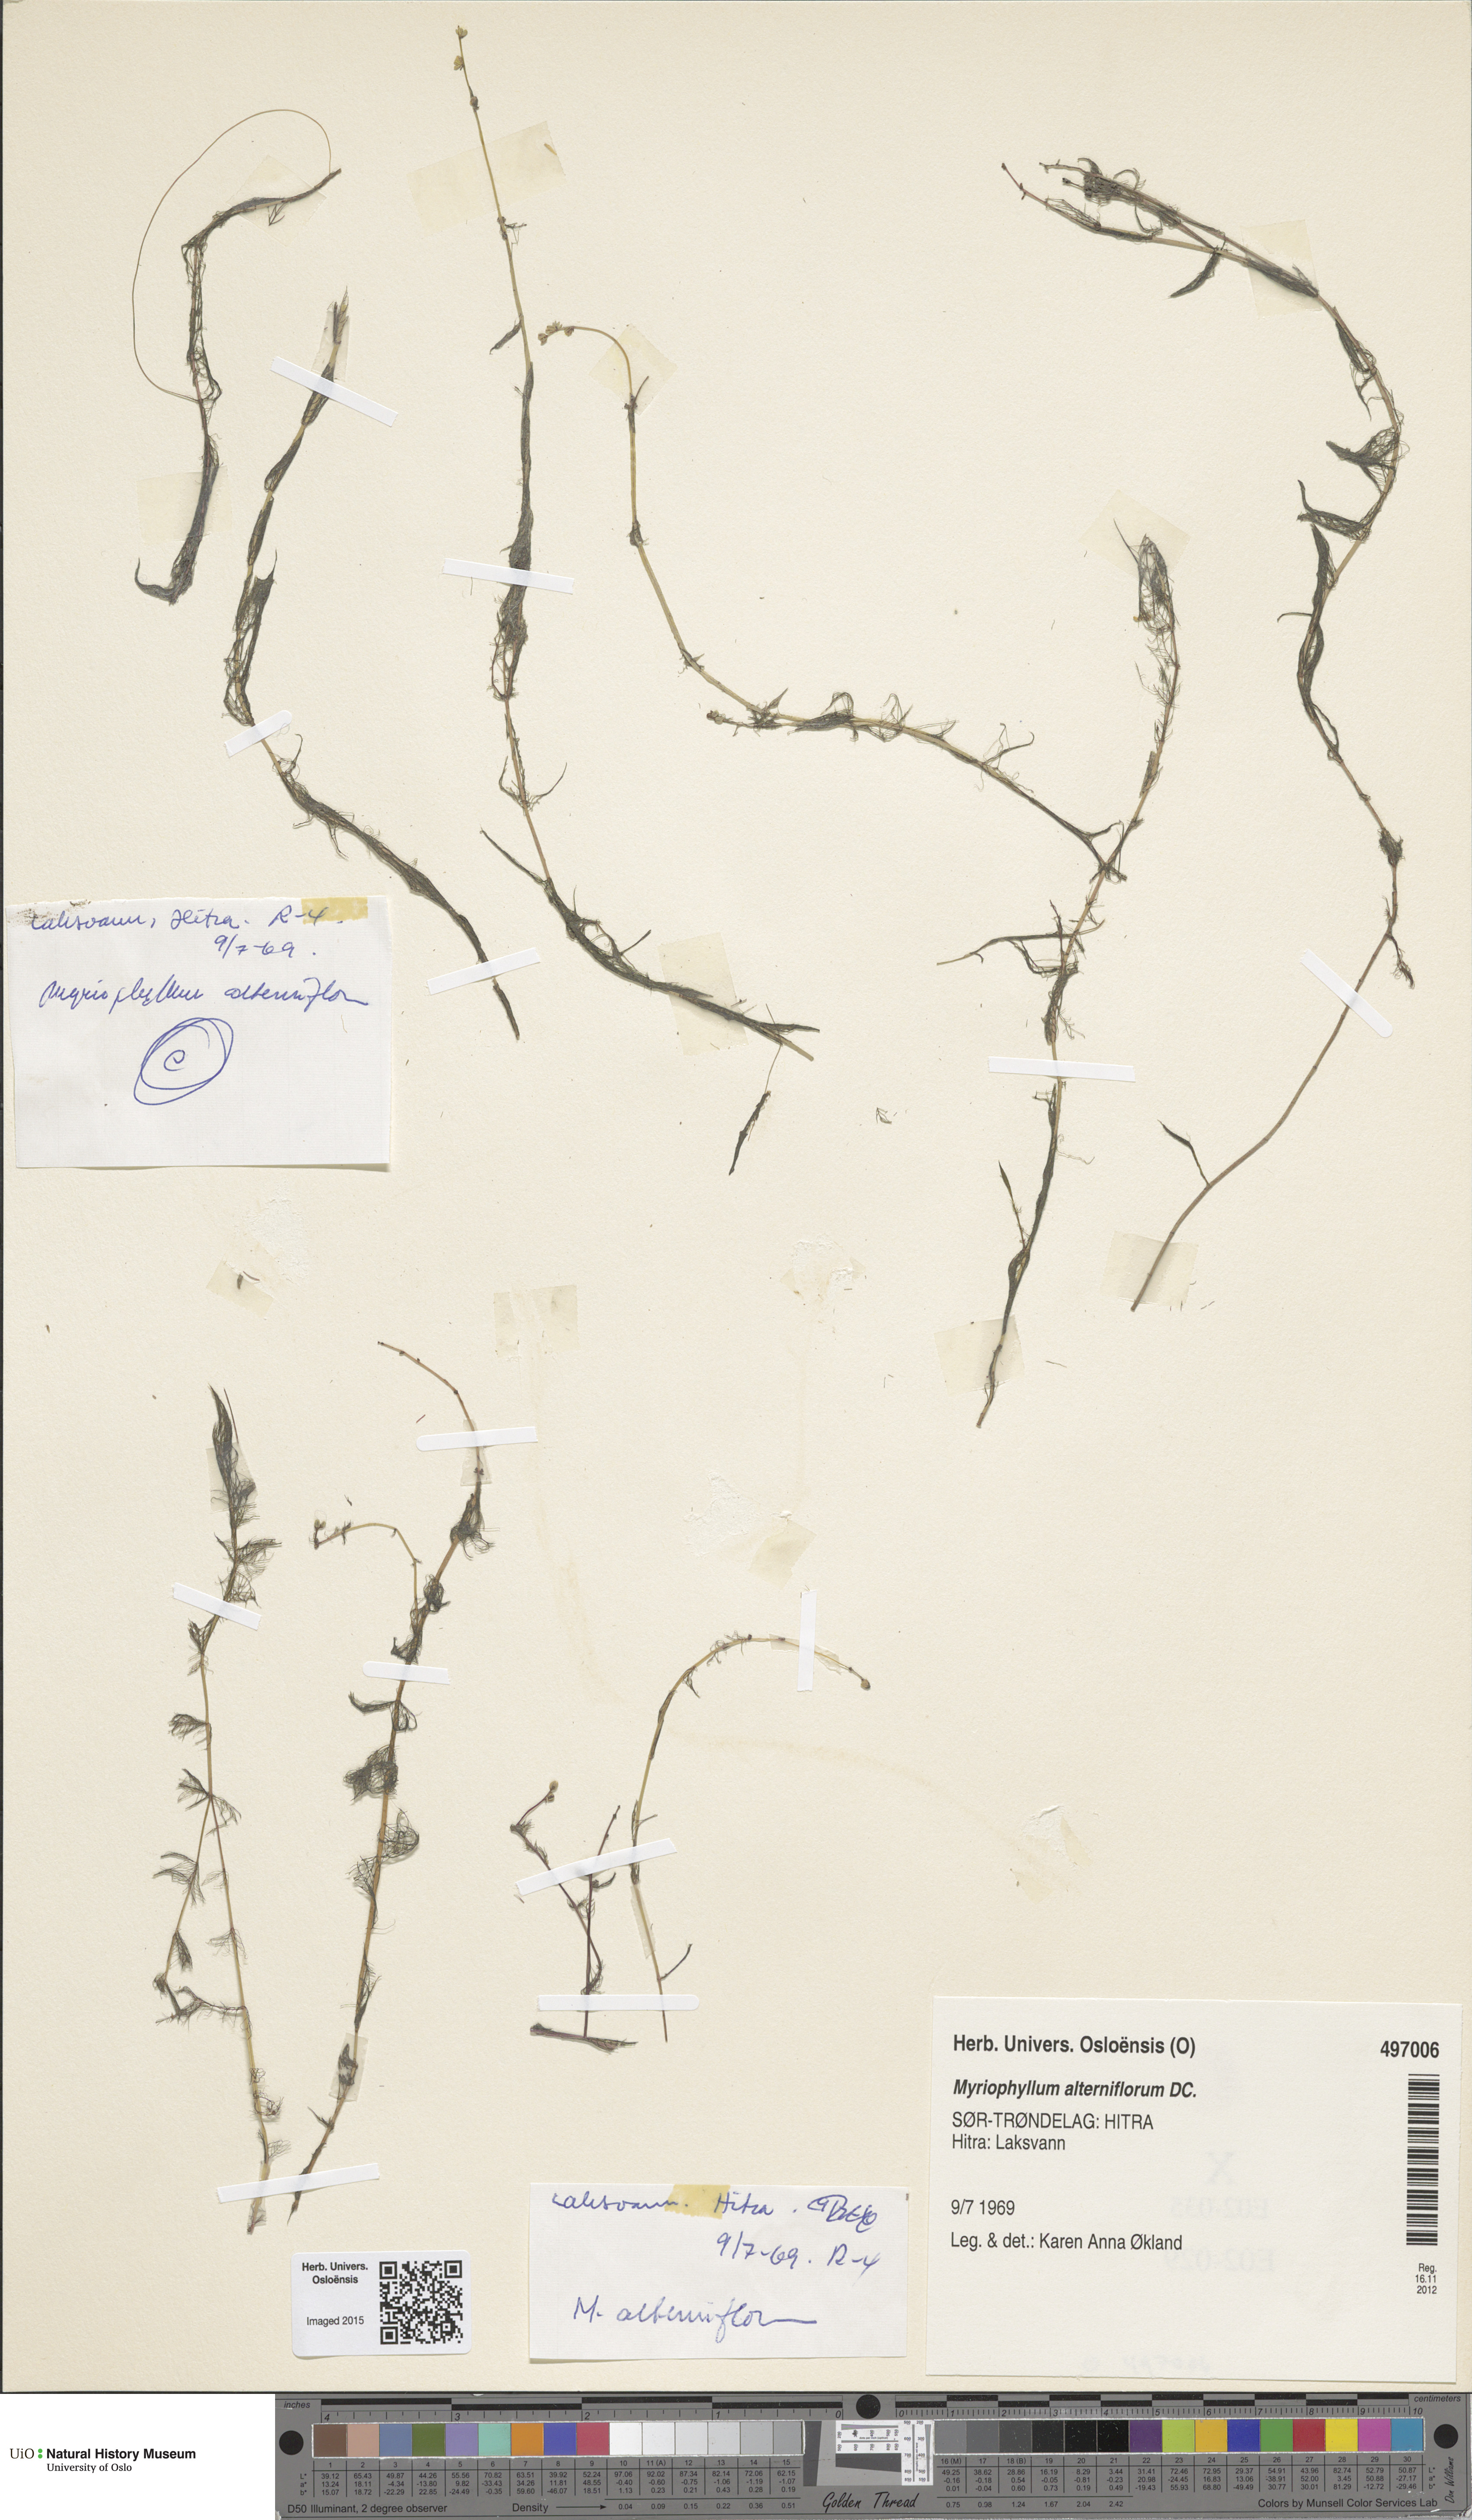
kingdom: Plantae
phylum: Tracheophyta
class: Magnoliopsida
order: Saxifragales
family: Haloragaceae
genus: Myriophyllum
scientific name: Myriophyllum alterniflorum
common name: Alternate water-milfoil
